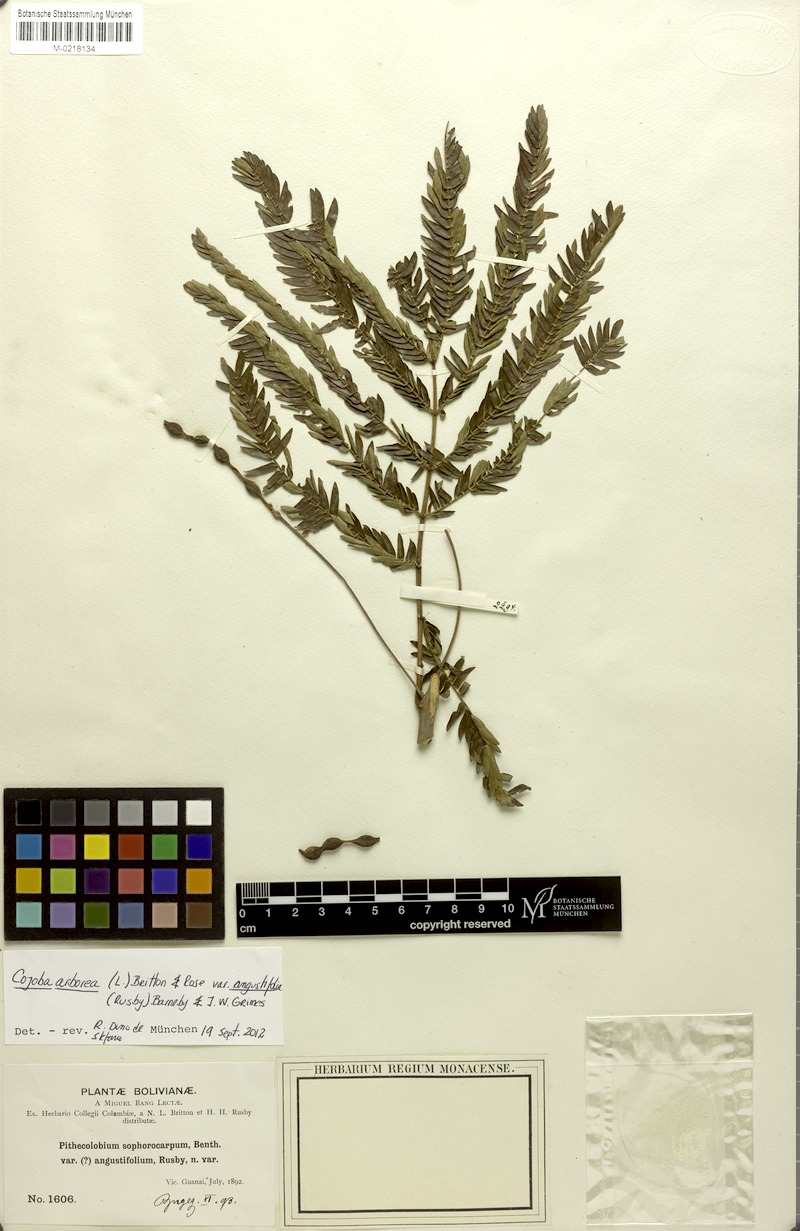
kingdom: Plantae
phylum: Tracheophyta
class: Magnoliopsida
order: Fabales
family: Fabaceae
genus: Cojoba
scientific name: Cojoba arborea
